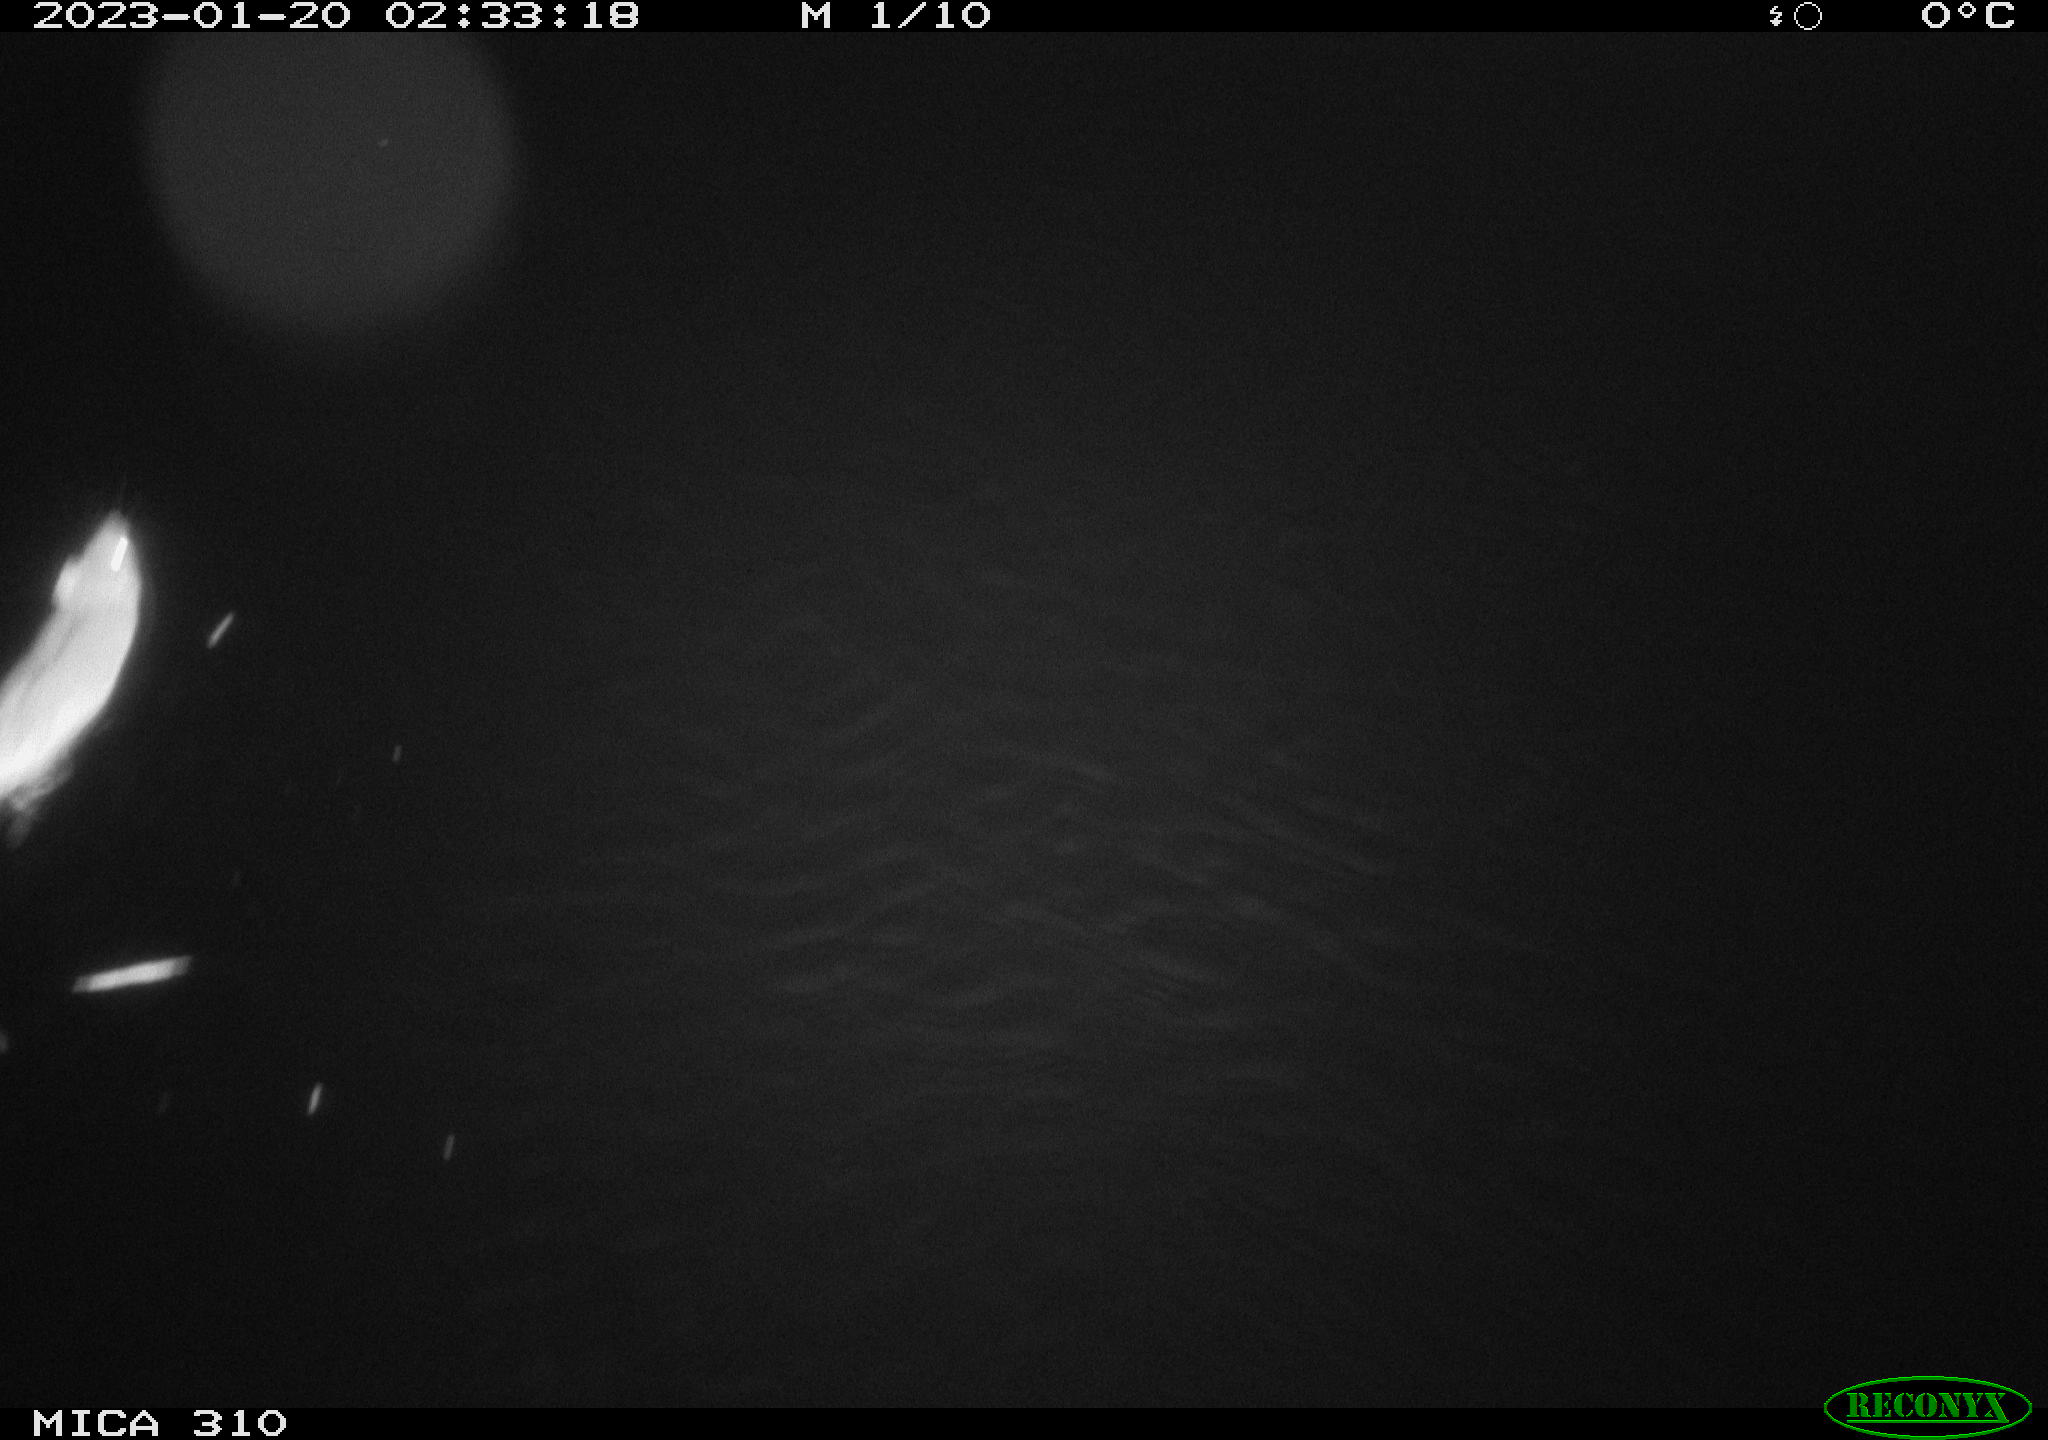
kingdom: Animalia
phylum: Chordata
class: Mammalia
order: Rodentia
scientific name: Rodentia
